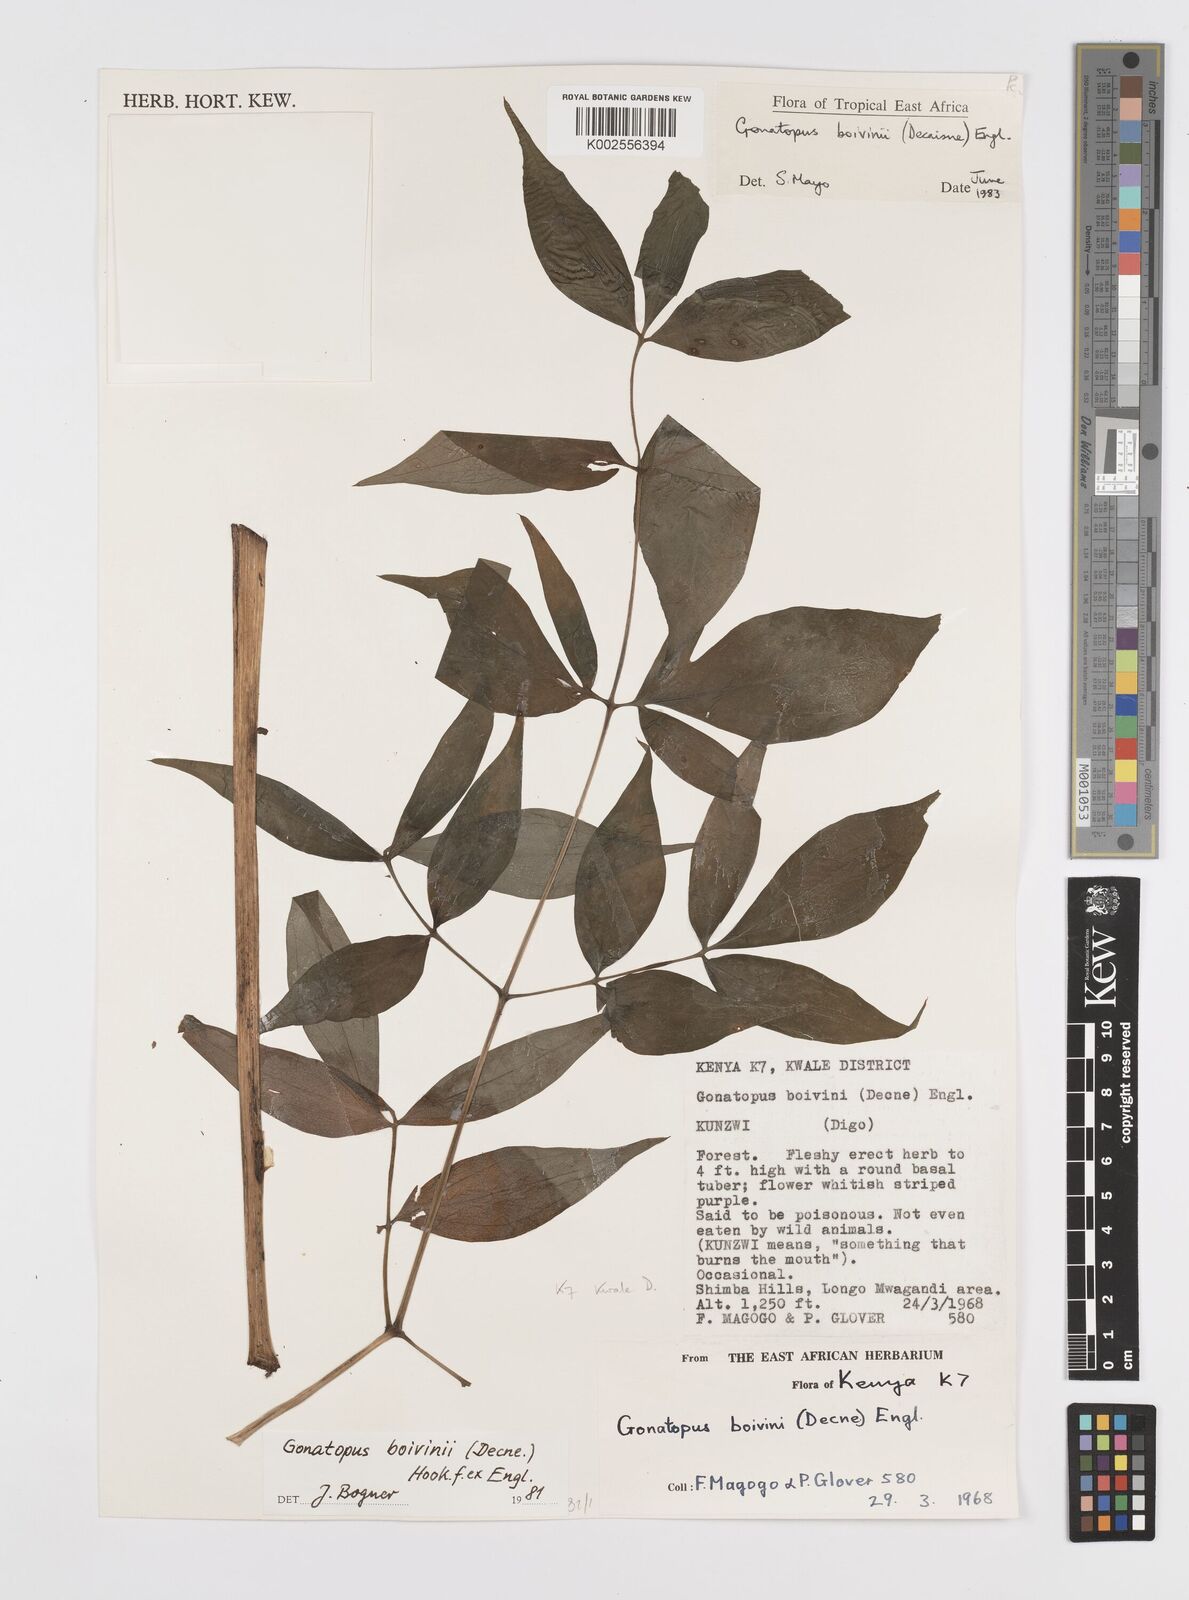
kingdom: Plantae
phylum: Tracheophyta
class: Liliopsida
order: Alismatales
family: Araceae
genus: Gonatopus
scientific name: Gonatopus boivinii
